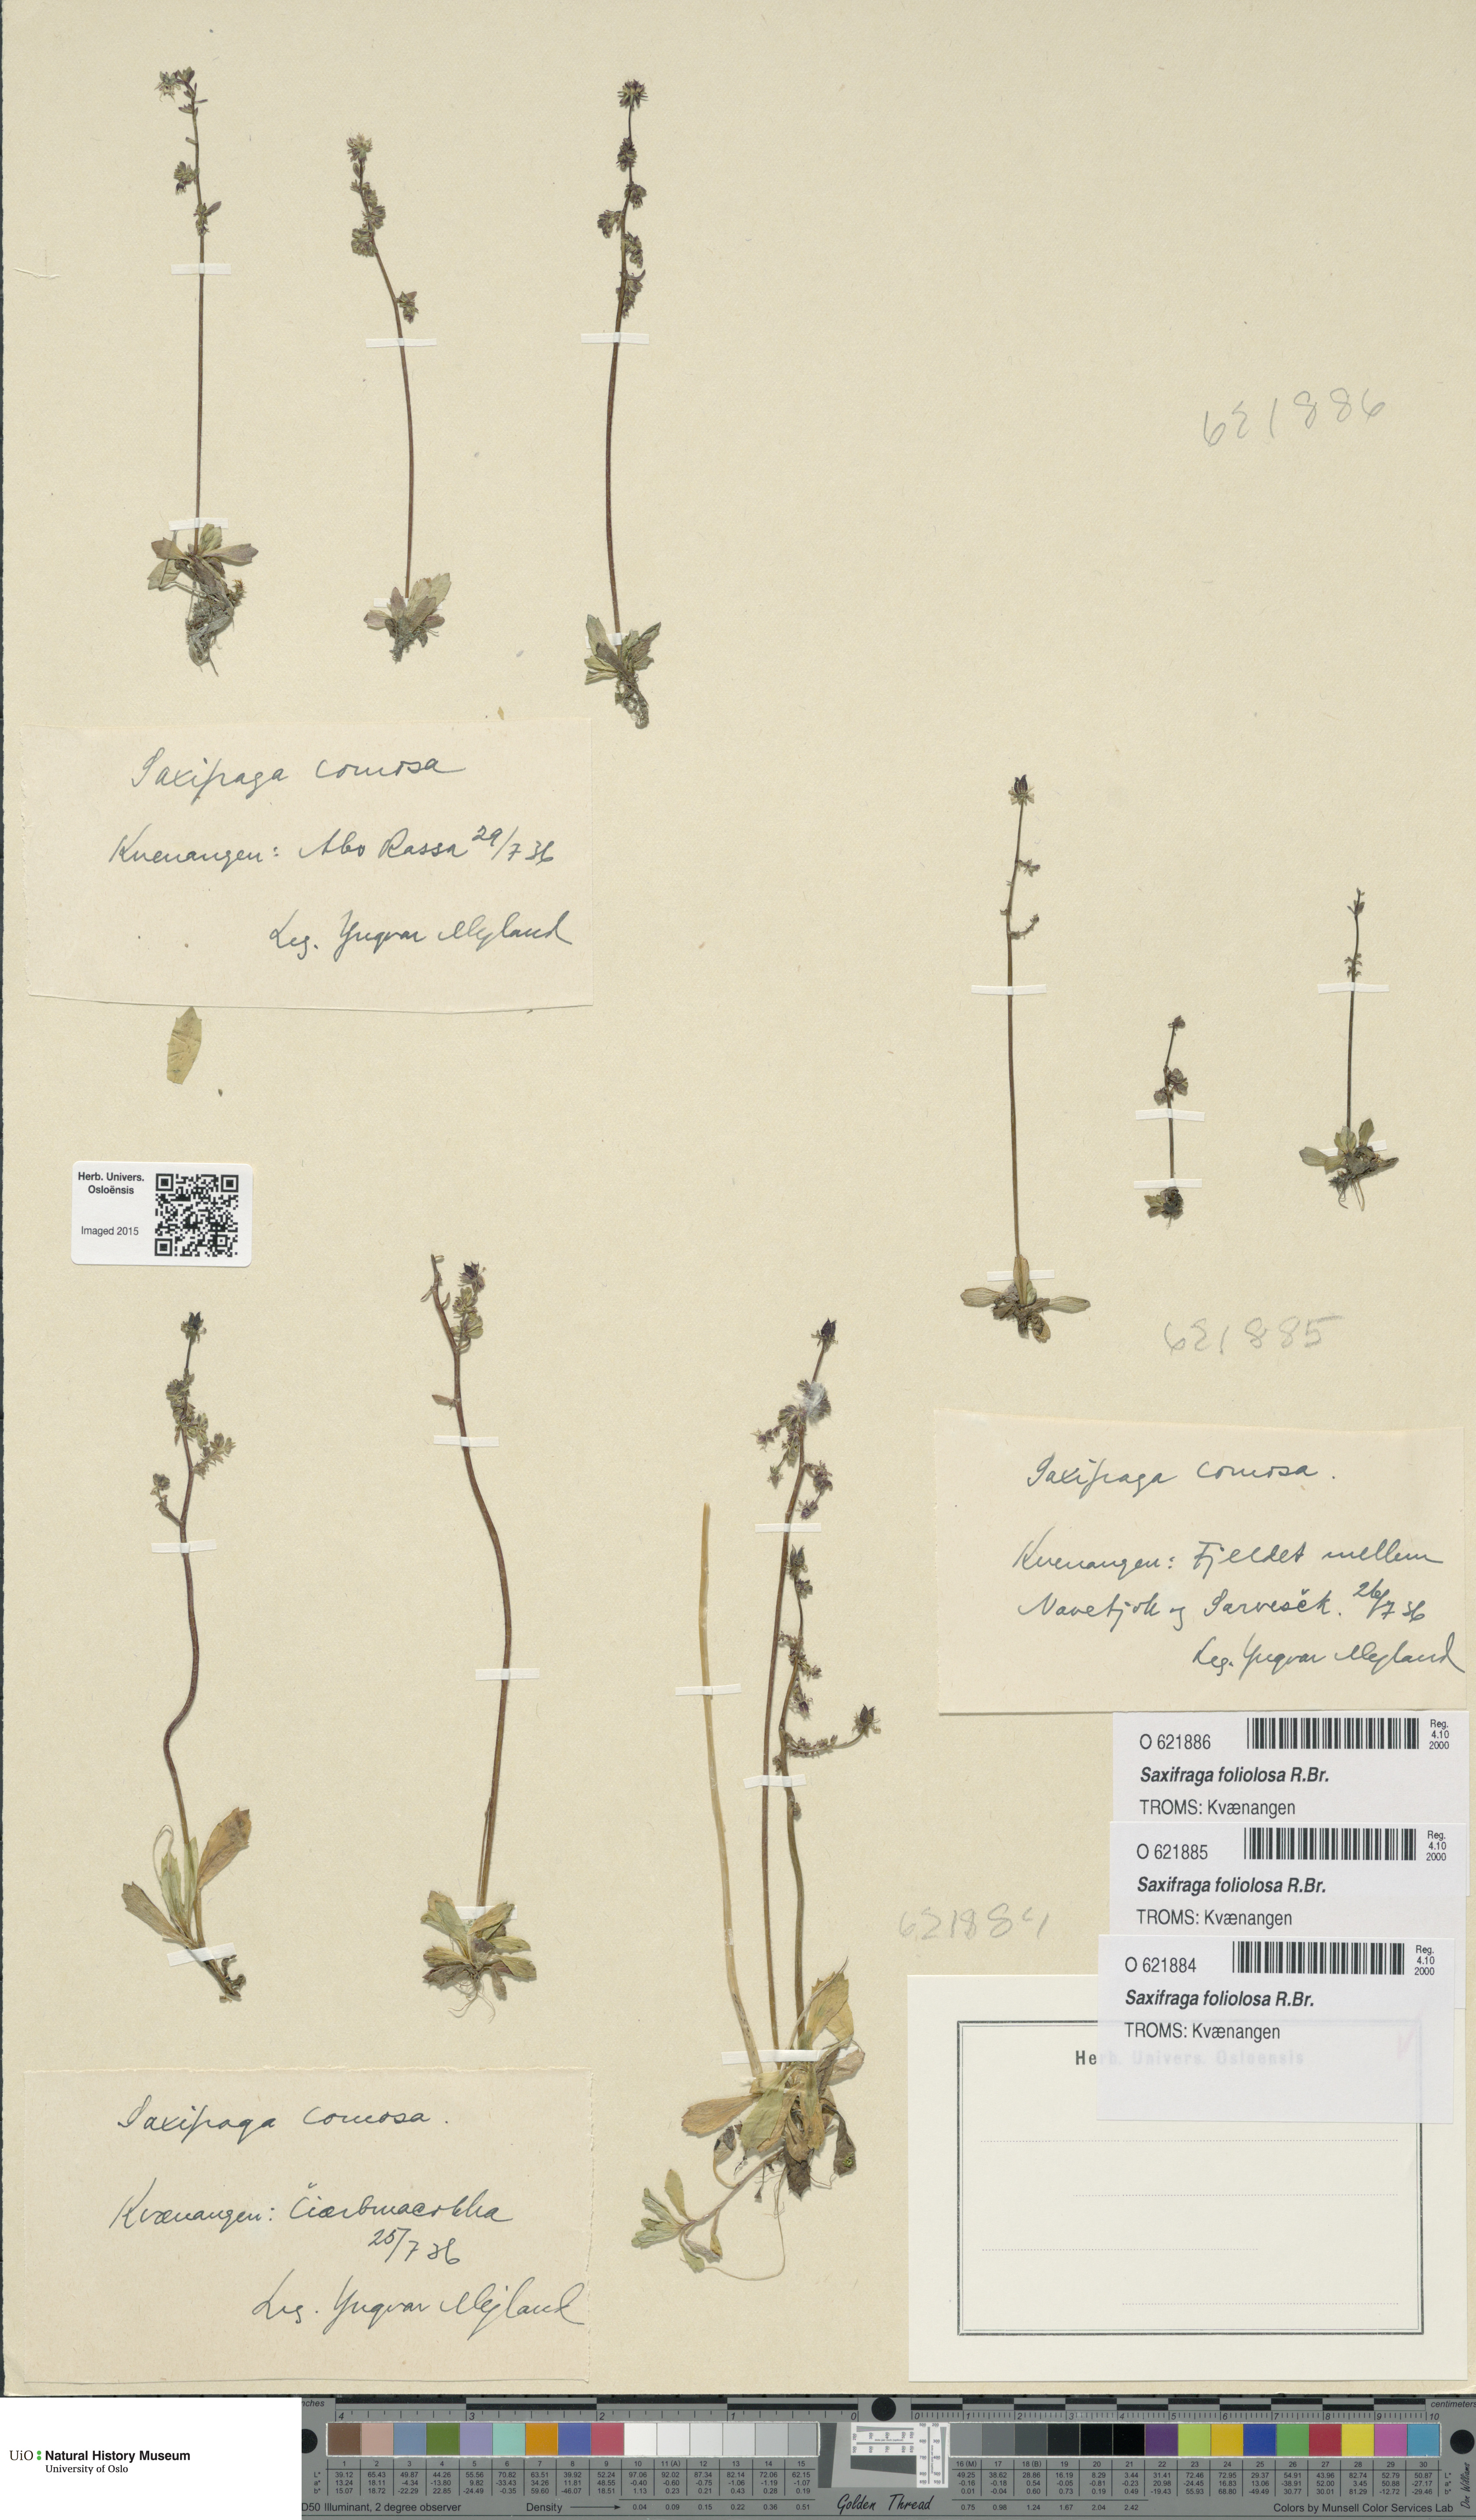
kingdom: Plantae
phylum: Tracheophyta
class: Magnoliopsida
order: Saxifragales
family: Saxifragaceae
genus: Micranthes
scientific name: Micranthes foliolosa
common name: Leafystem saxifrage
